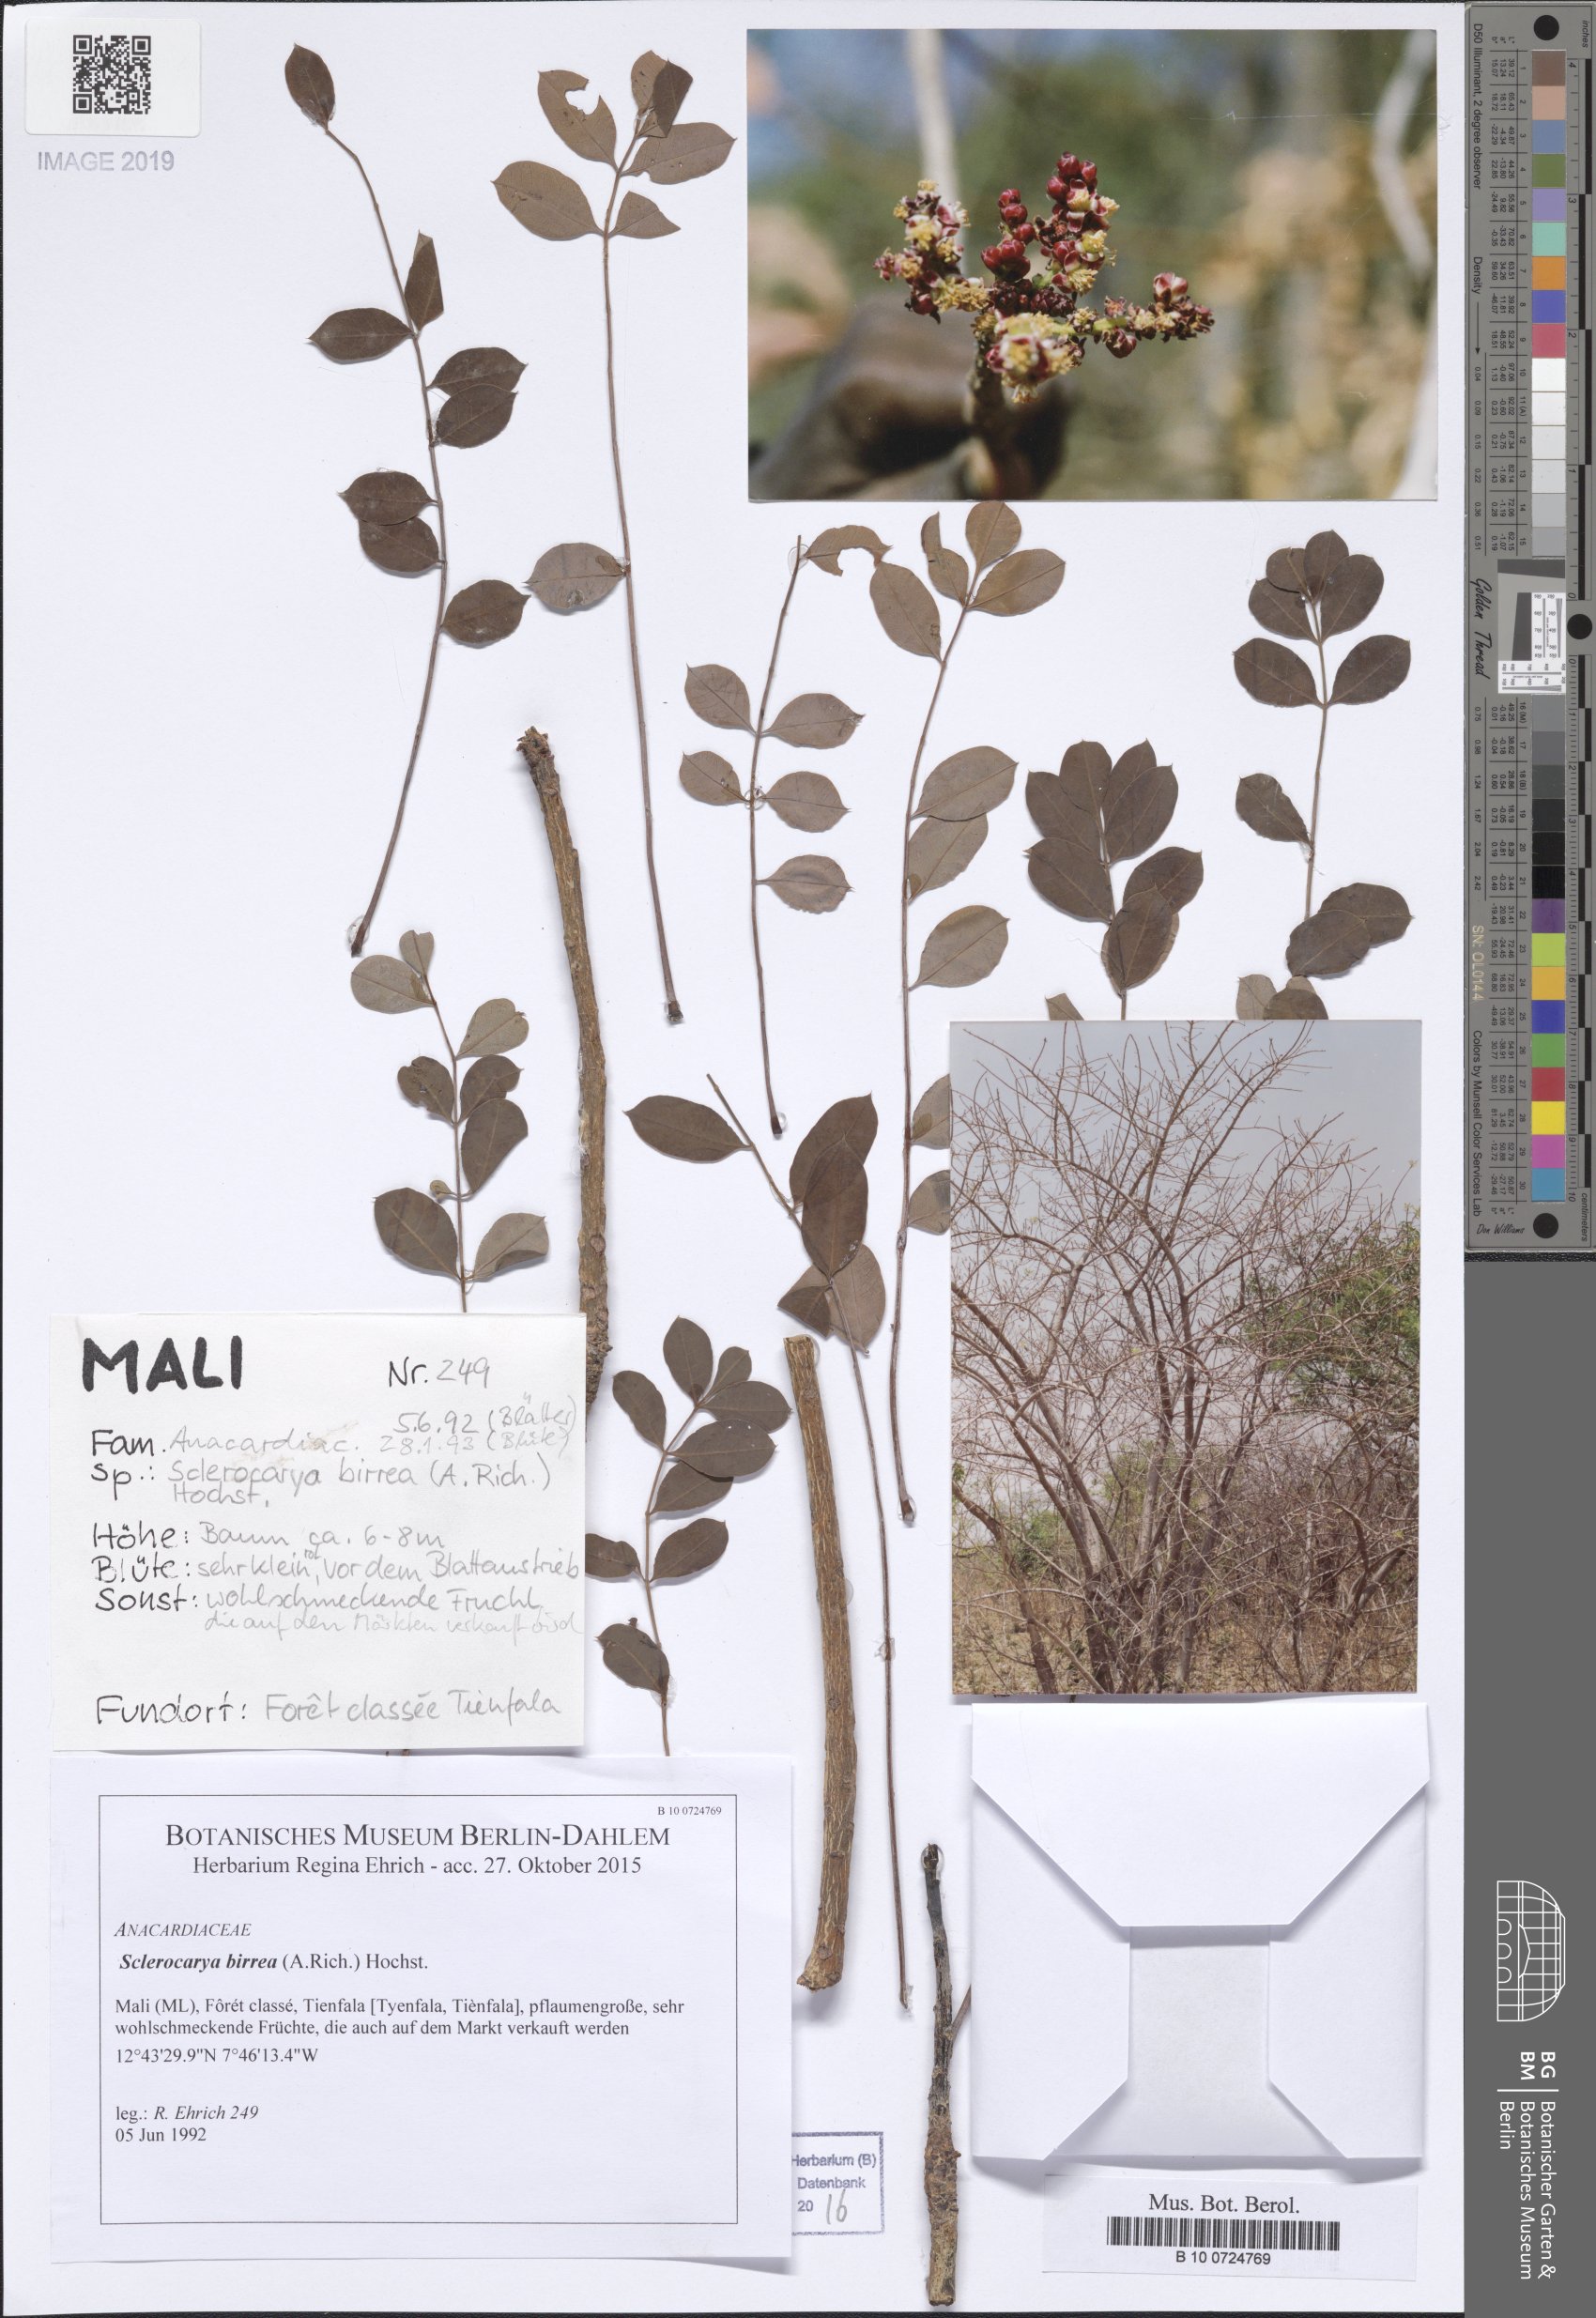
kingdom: Plantae
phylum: Tracheophyta
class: Magnoliopsida
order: Sapindales
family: Anacardiaceae
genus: Sclerocarya
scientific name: Sclerocarya birrea
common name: Marula
